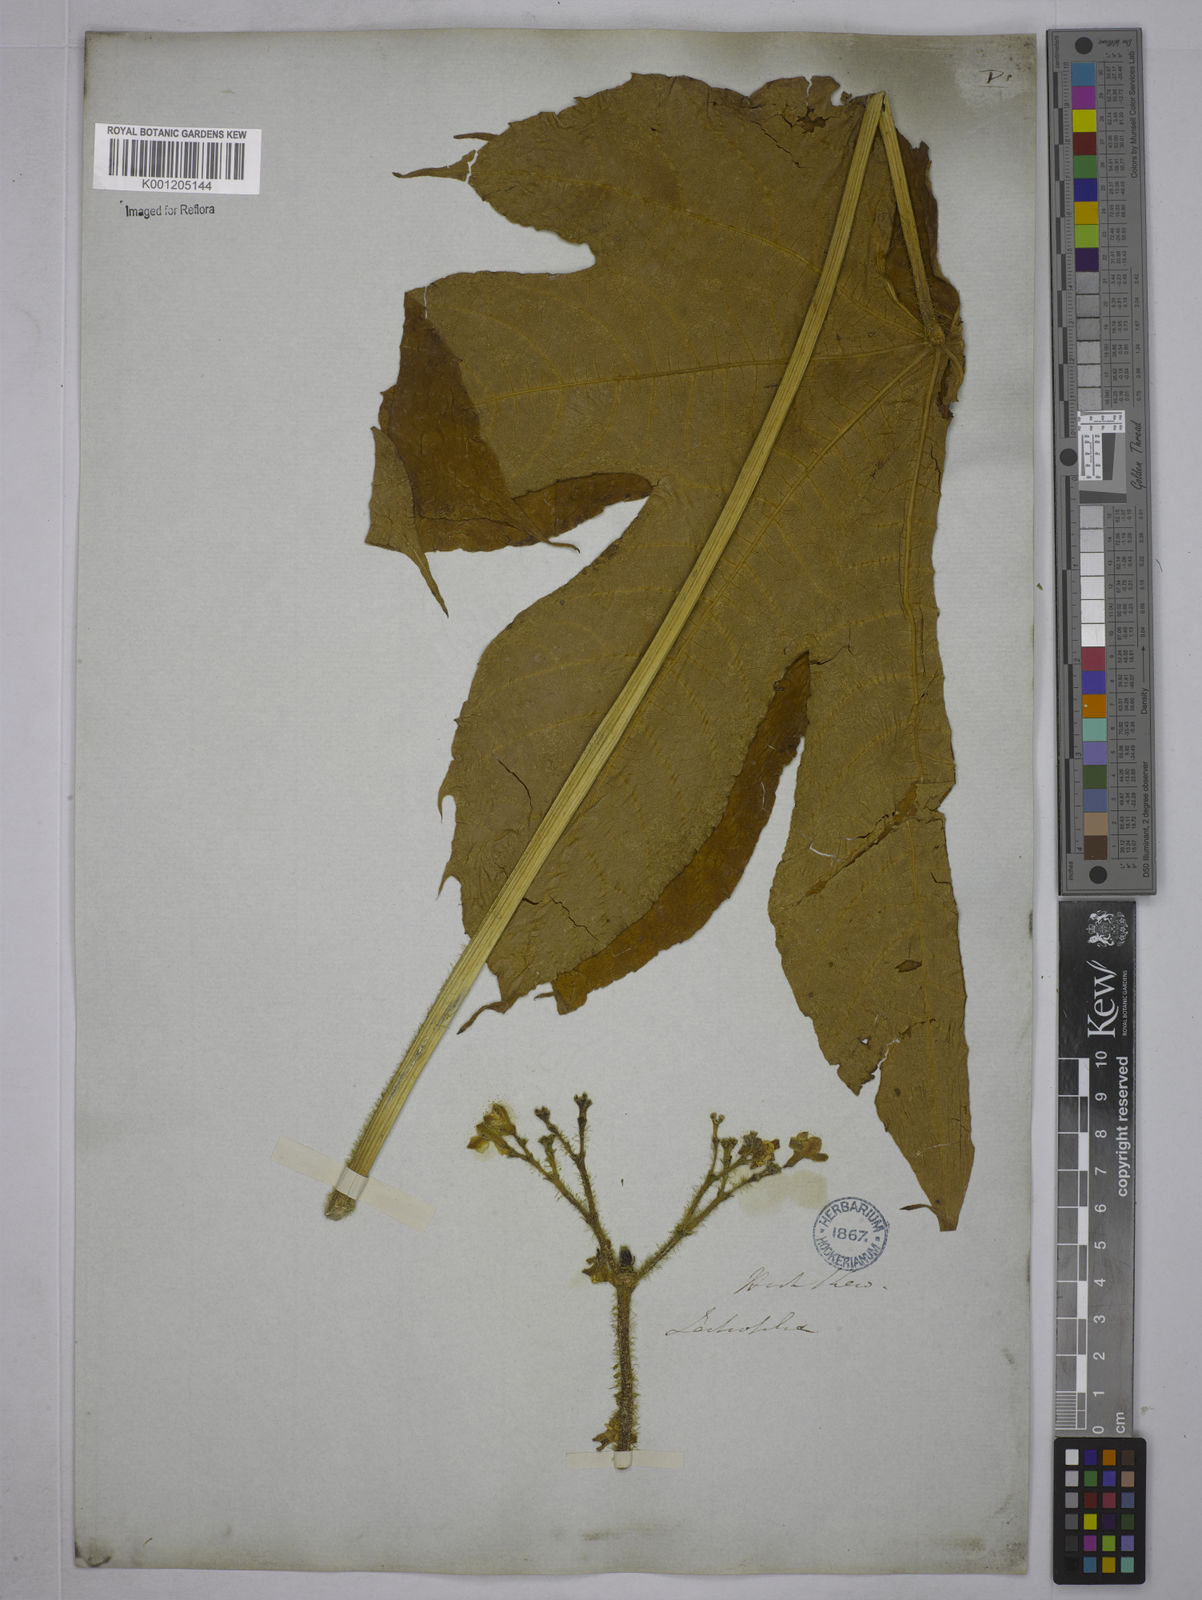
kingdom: Plantae
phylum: Tracheophyta
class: Magnoliopsida
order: Malpighiales
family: Euphorbiaceae
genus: Cnidoscolus
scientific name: Cnidoscolus urens
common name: Bull-nettle
